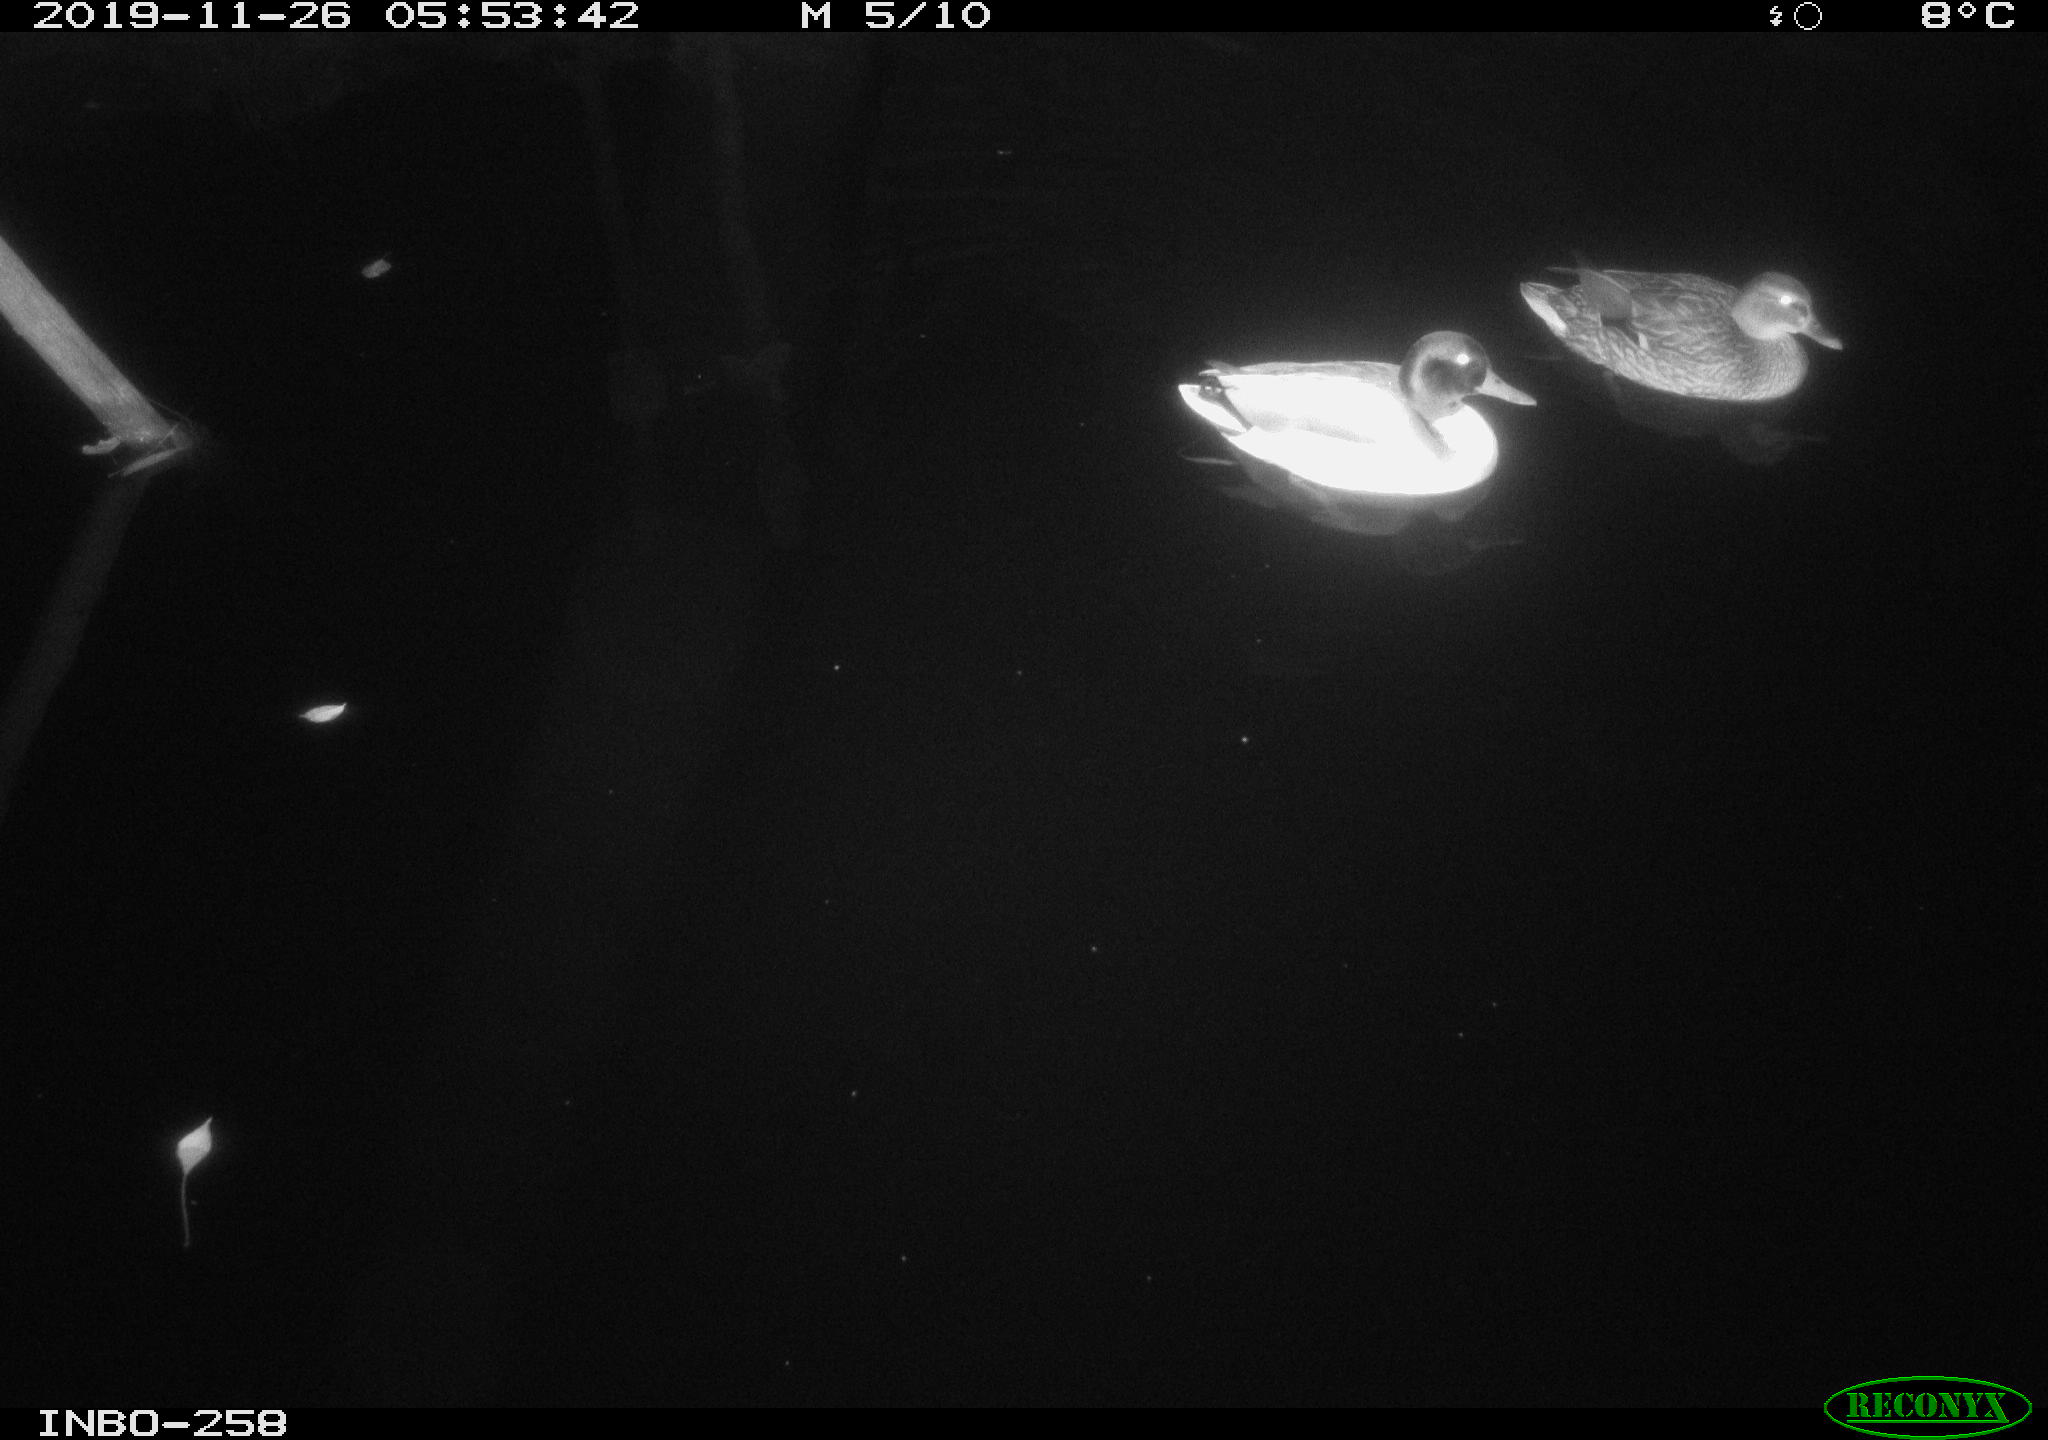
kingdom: Animalia
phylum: Chordata
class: Aves
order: Anseriformes
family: Anatidae
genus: Anas
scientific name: Anas platyrhynchos
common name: Mallard
